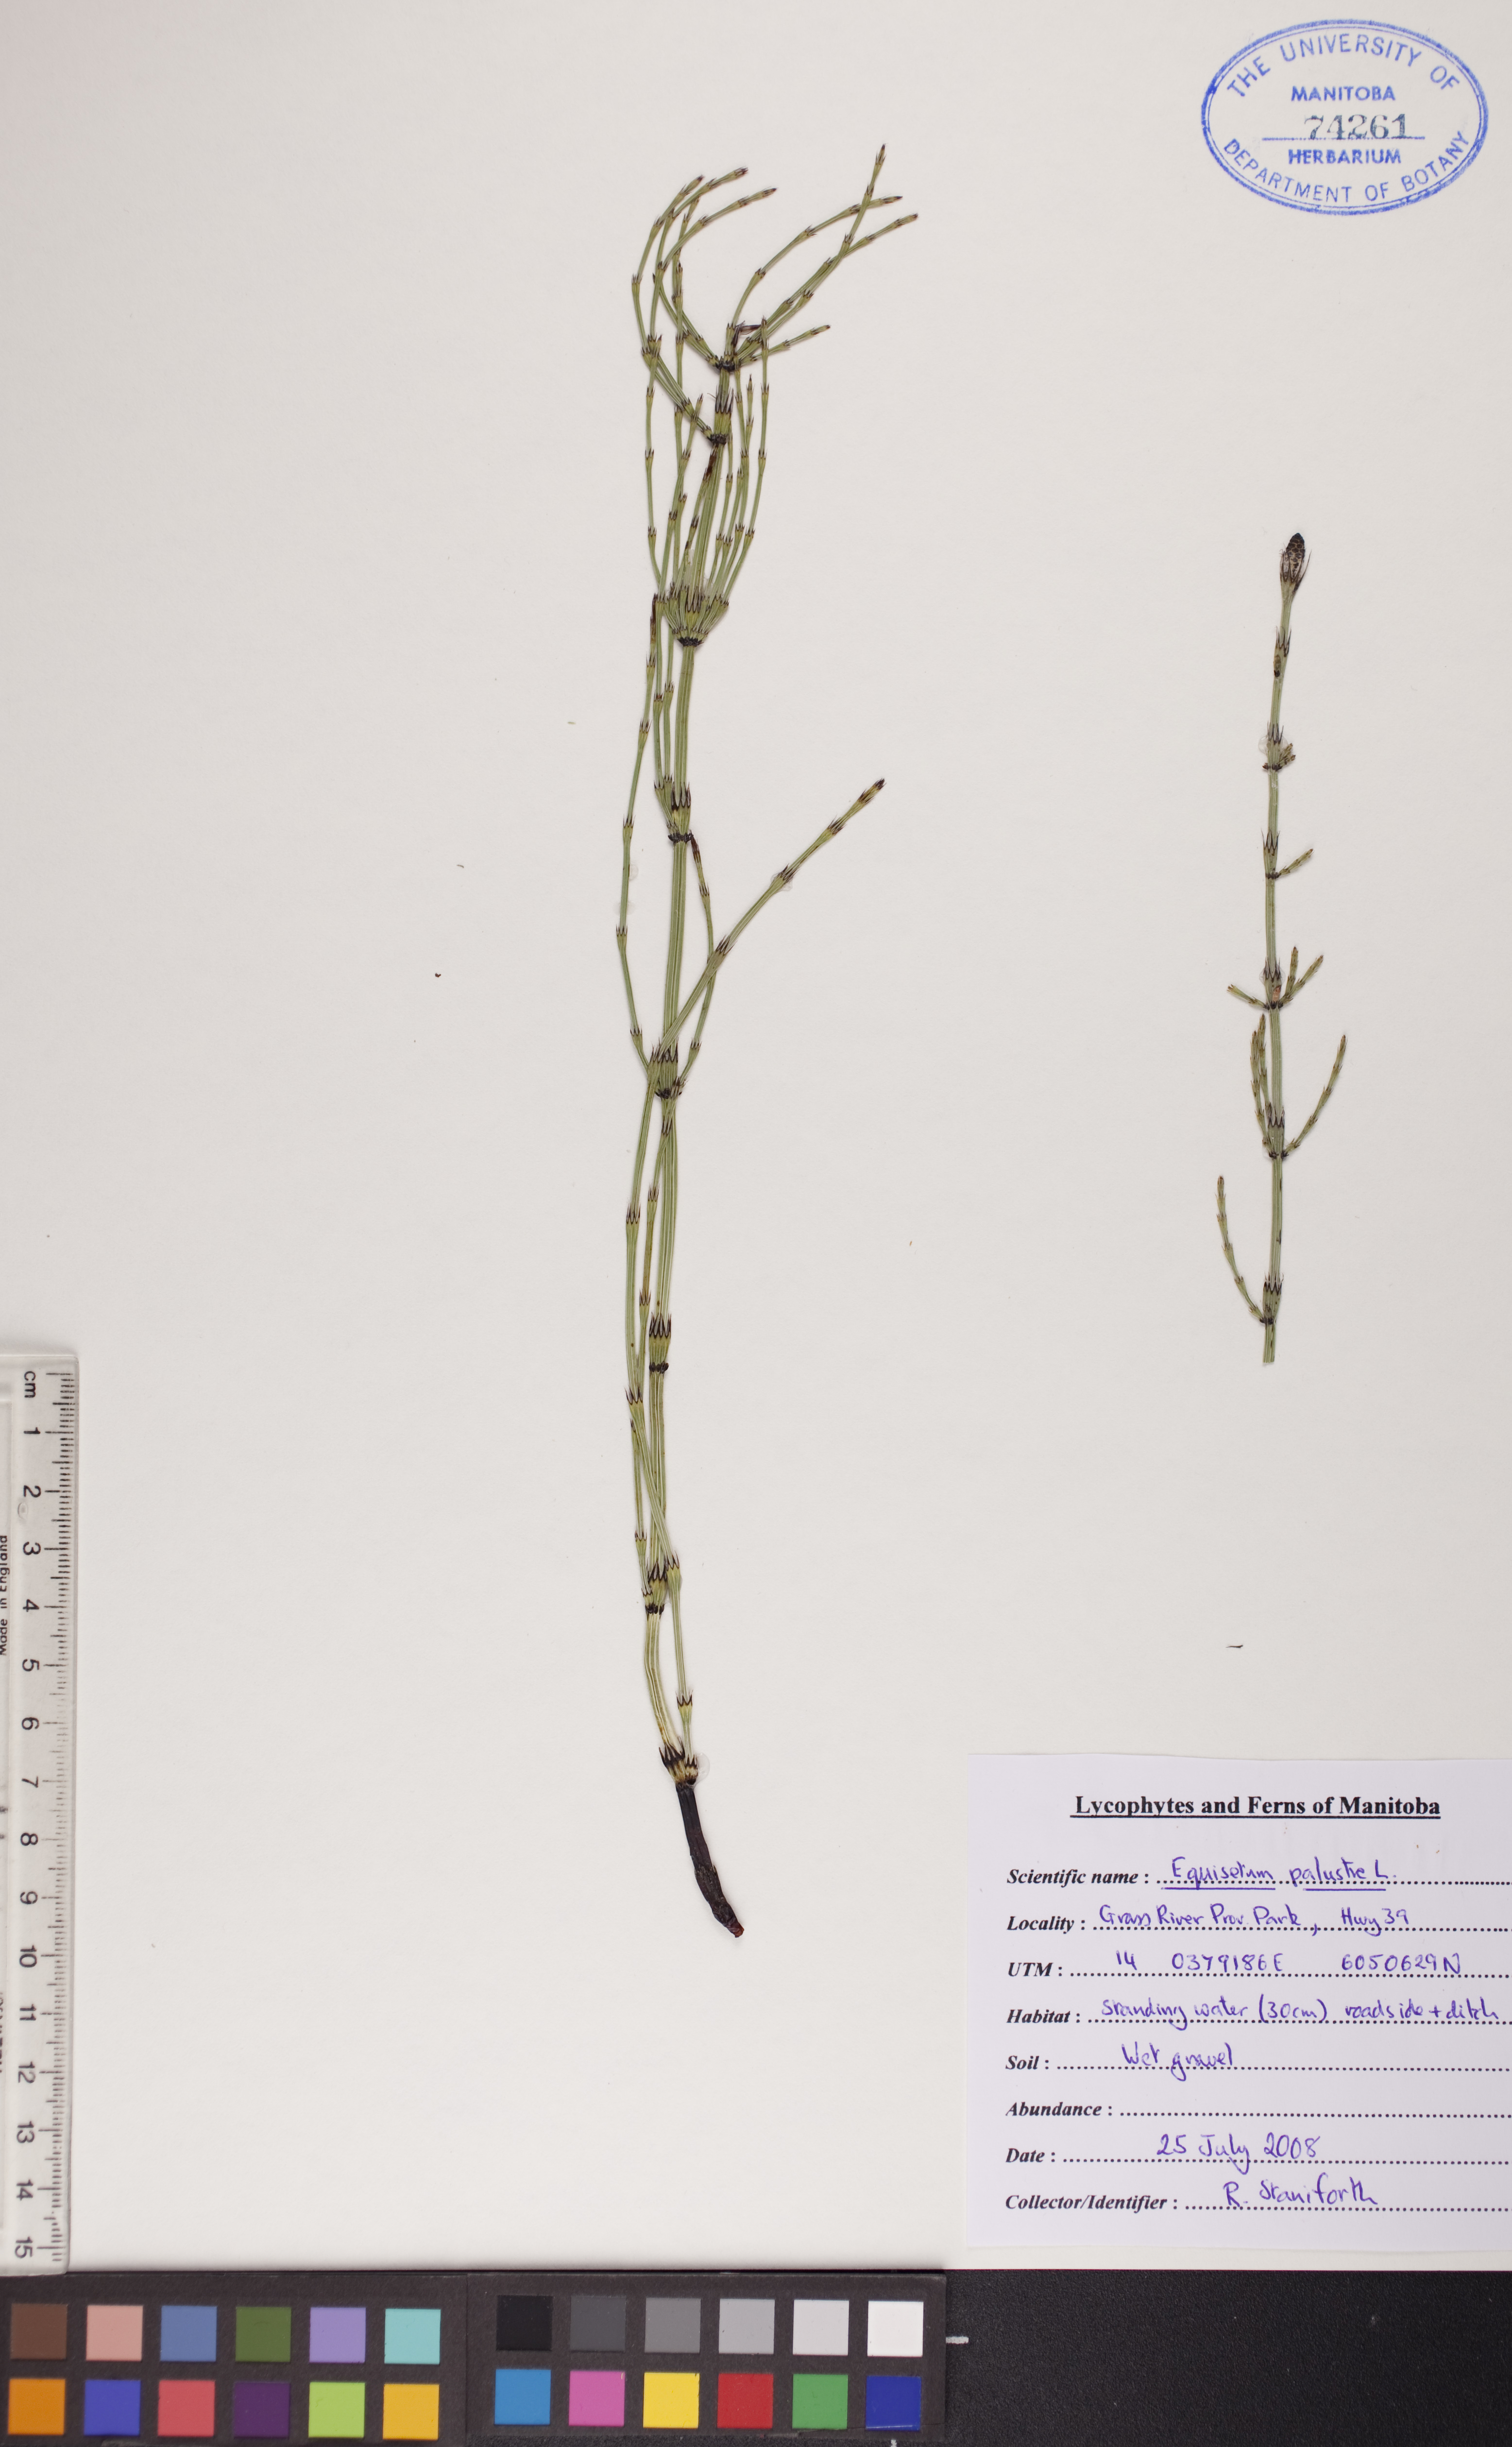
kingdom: Plantae
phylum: Tracheophyta
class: Polypodiopsida
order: Equisetales
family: Equisetaceae
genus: Equisetum
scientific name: Equisetum palustre
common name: Marsh horsetail
